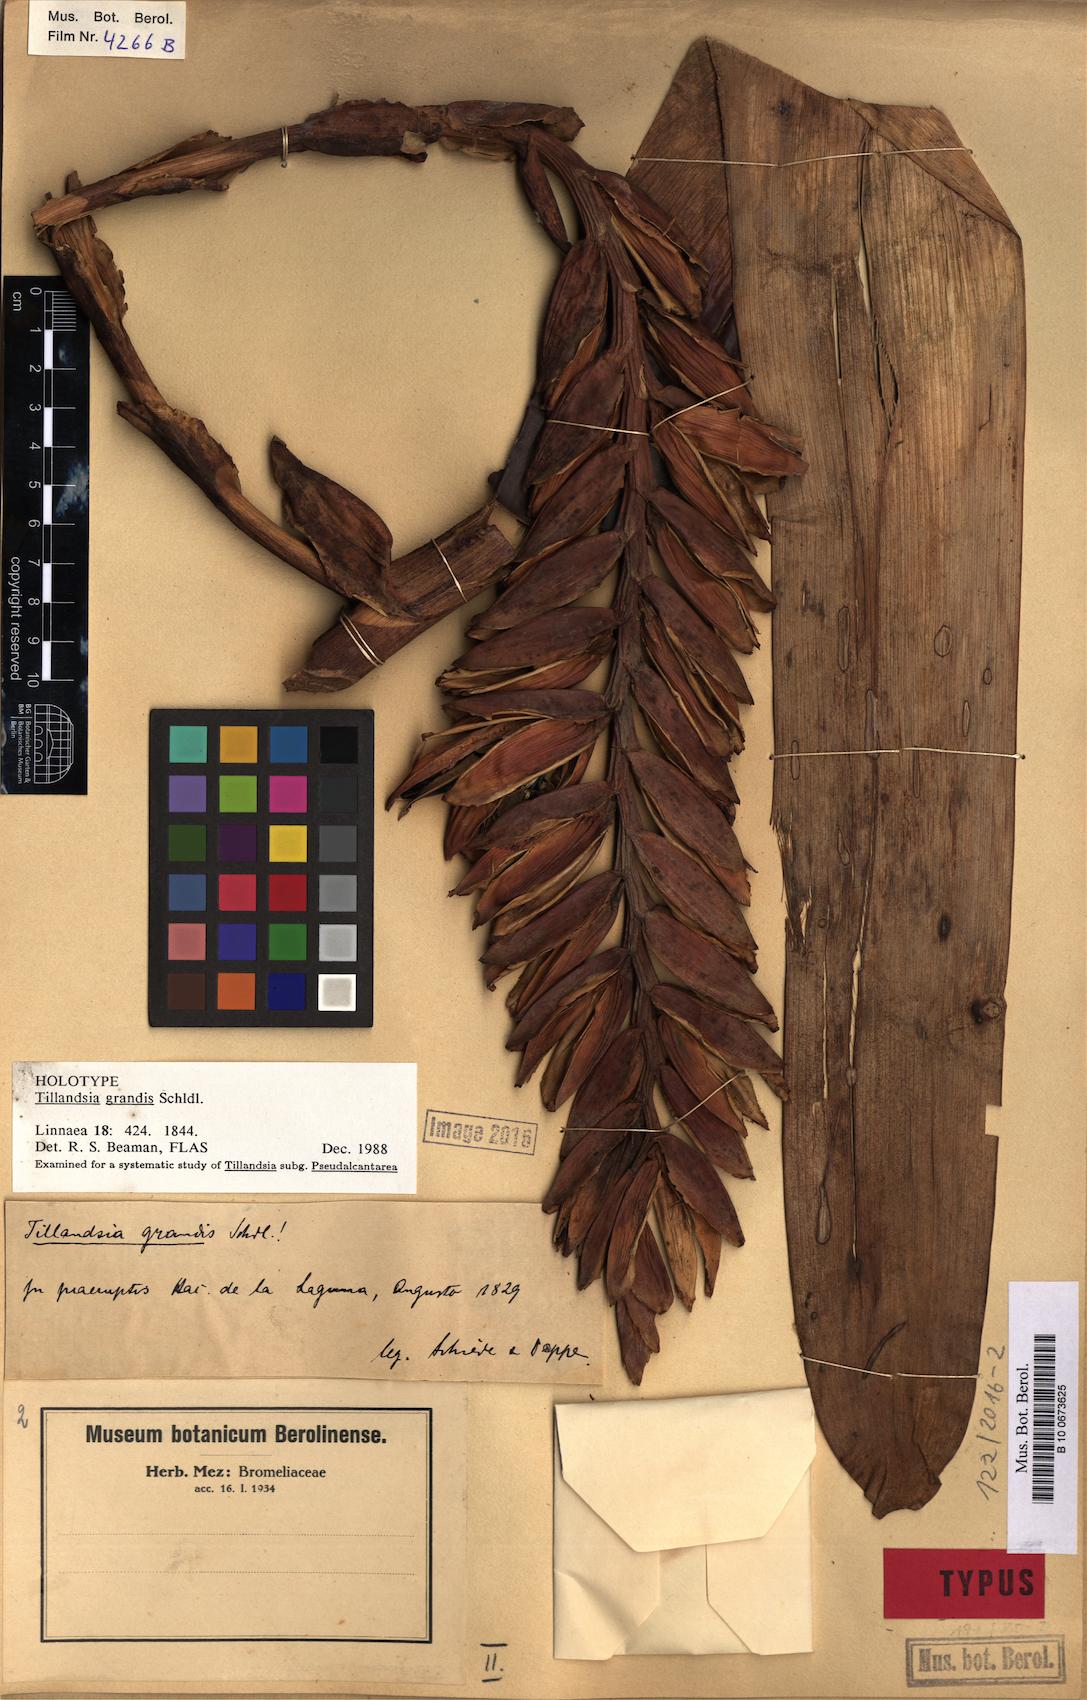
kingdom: Plantae
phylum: Tracheophyta
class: Liliopsida
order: Poales
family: Bromeliaceae
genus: Pseudalcantarea
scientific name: Pseudalcantarea grandis
